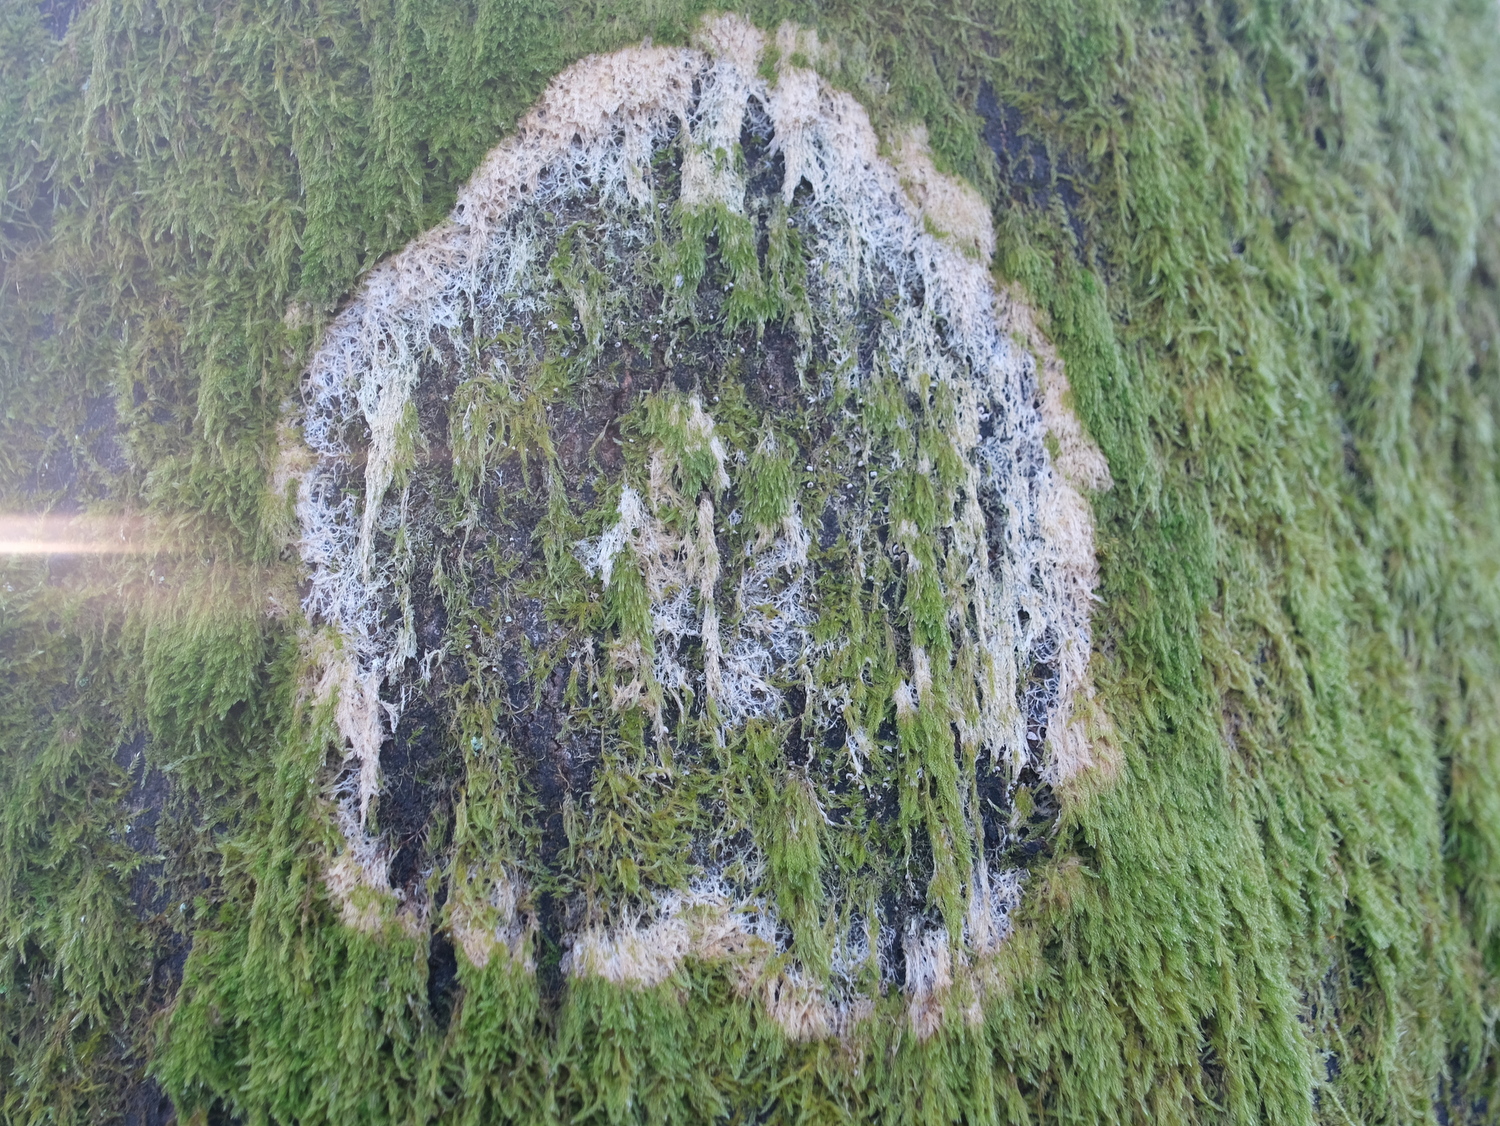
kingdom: Fungi
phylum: Basidiomycota
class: Agaricomycetes
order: Agaricales
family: Chromocyphellaceae
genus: Chromocyphella
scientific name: Chromocyphella muscicola
